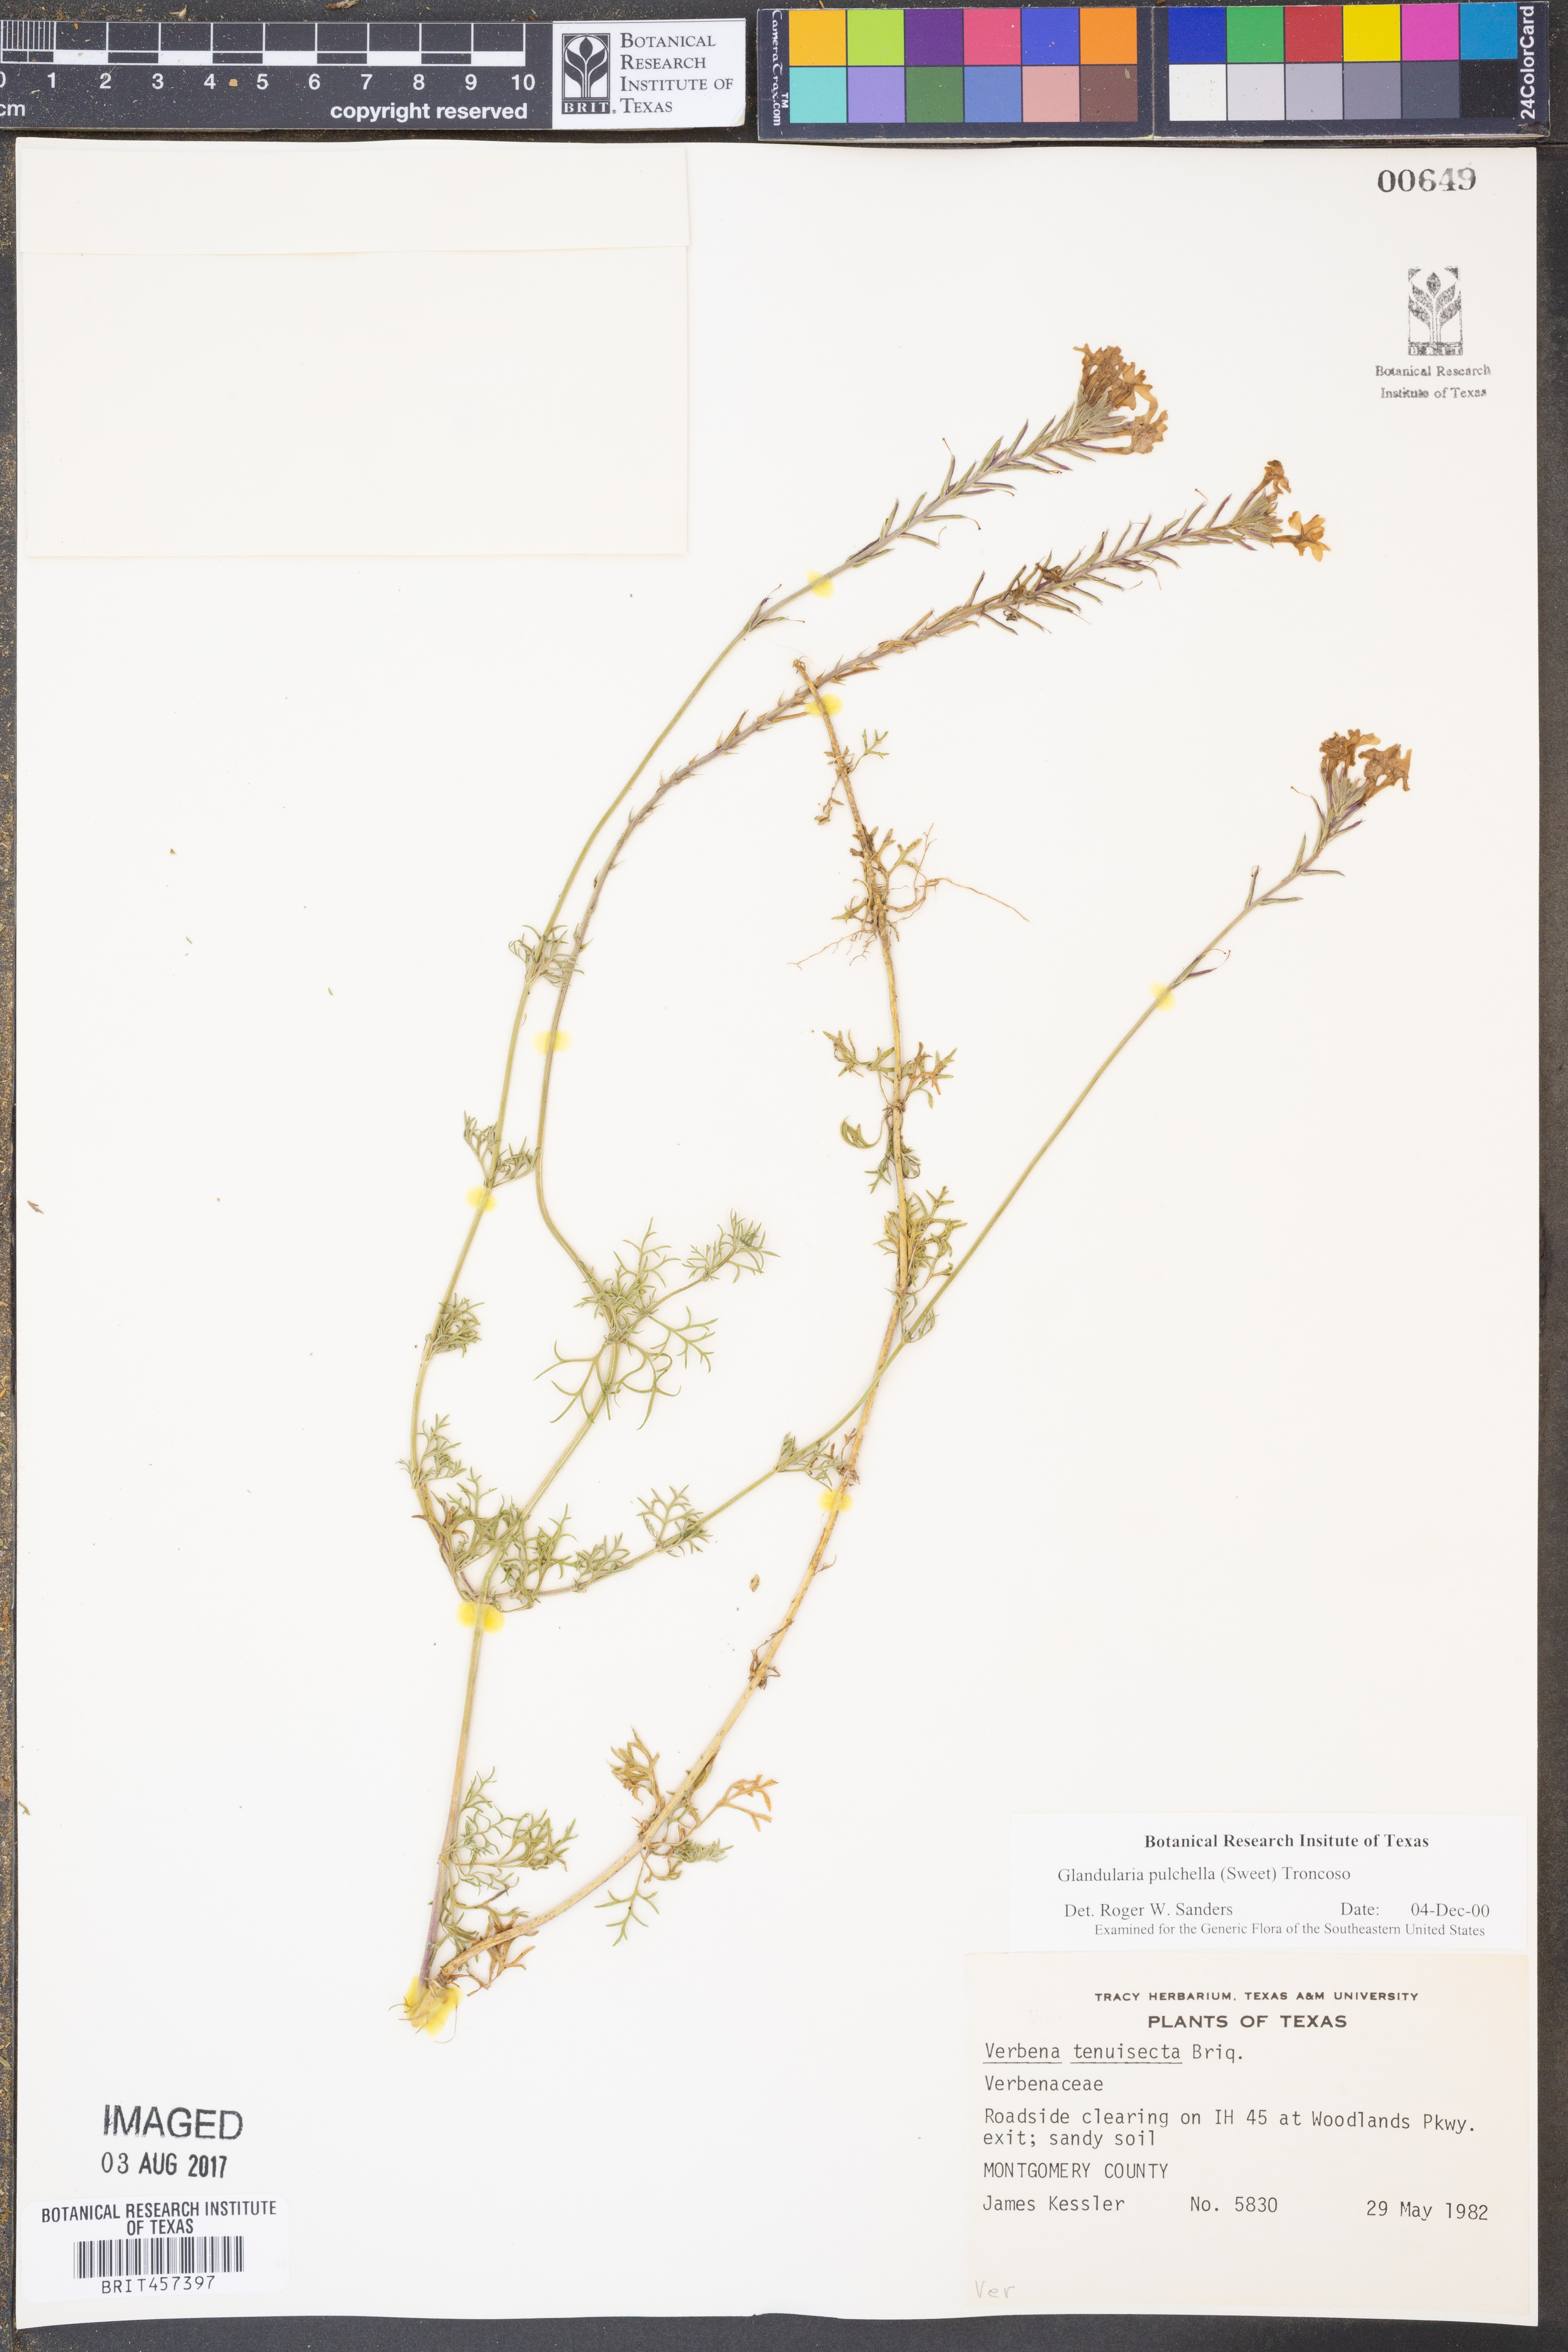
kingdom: Plantae
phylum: Tracheophyta
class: Magnoliopsida
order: Lamiales
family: Verbenaceae
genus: Verbena
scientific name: Verbena tenera
